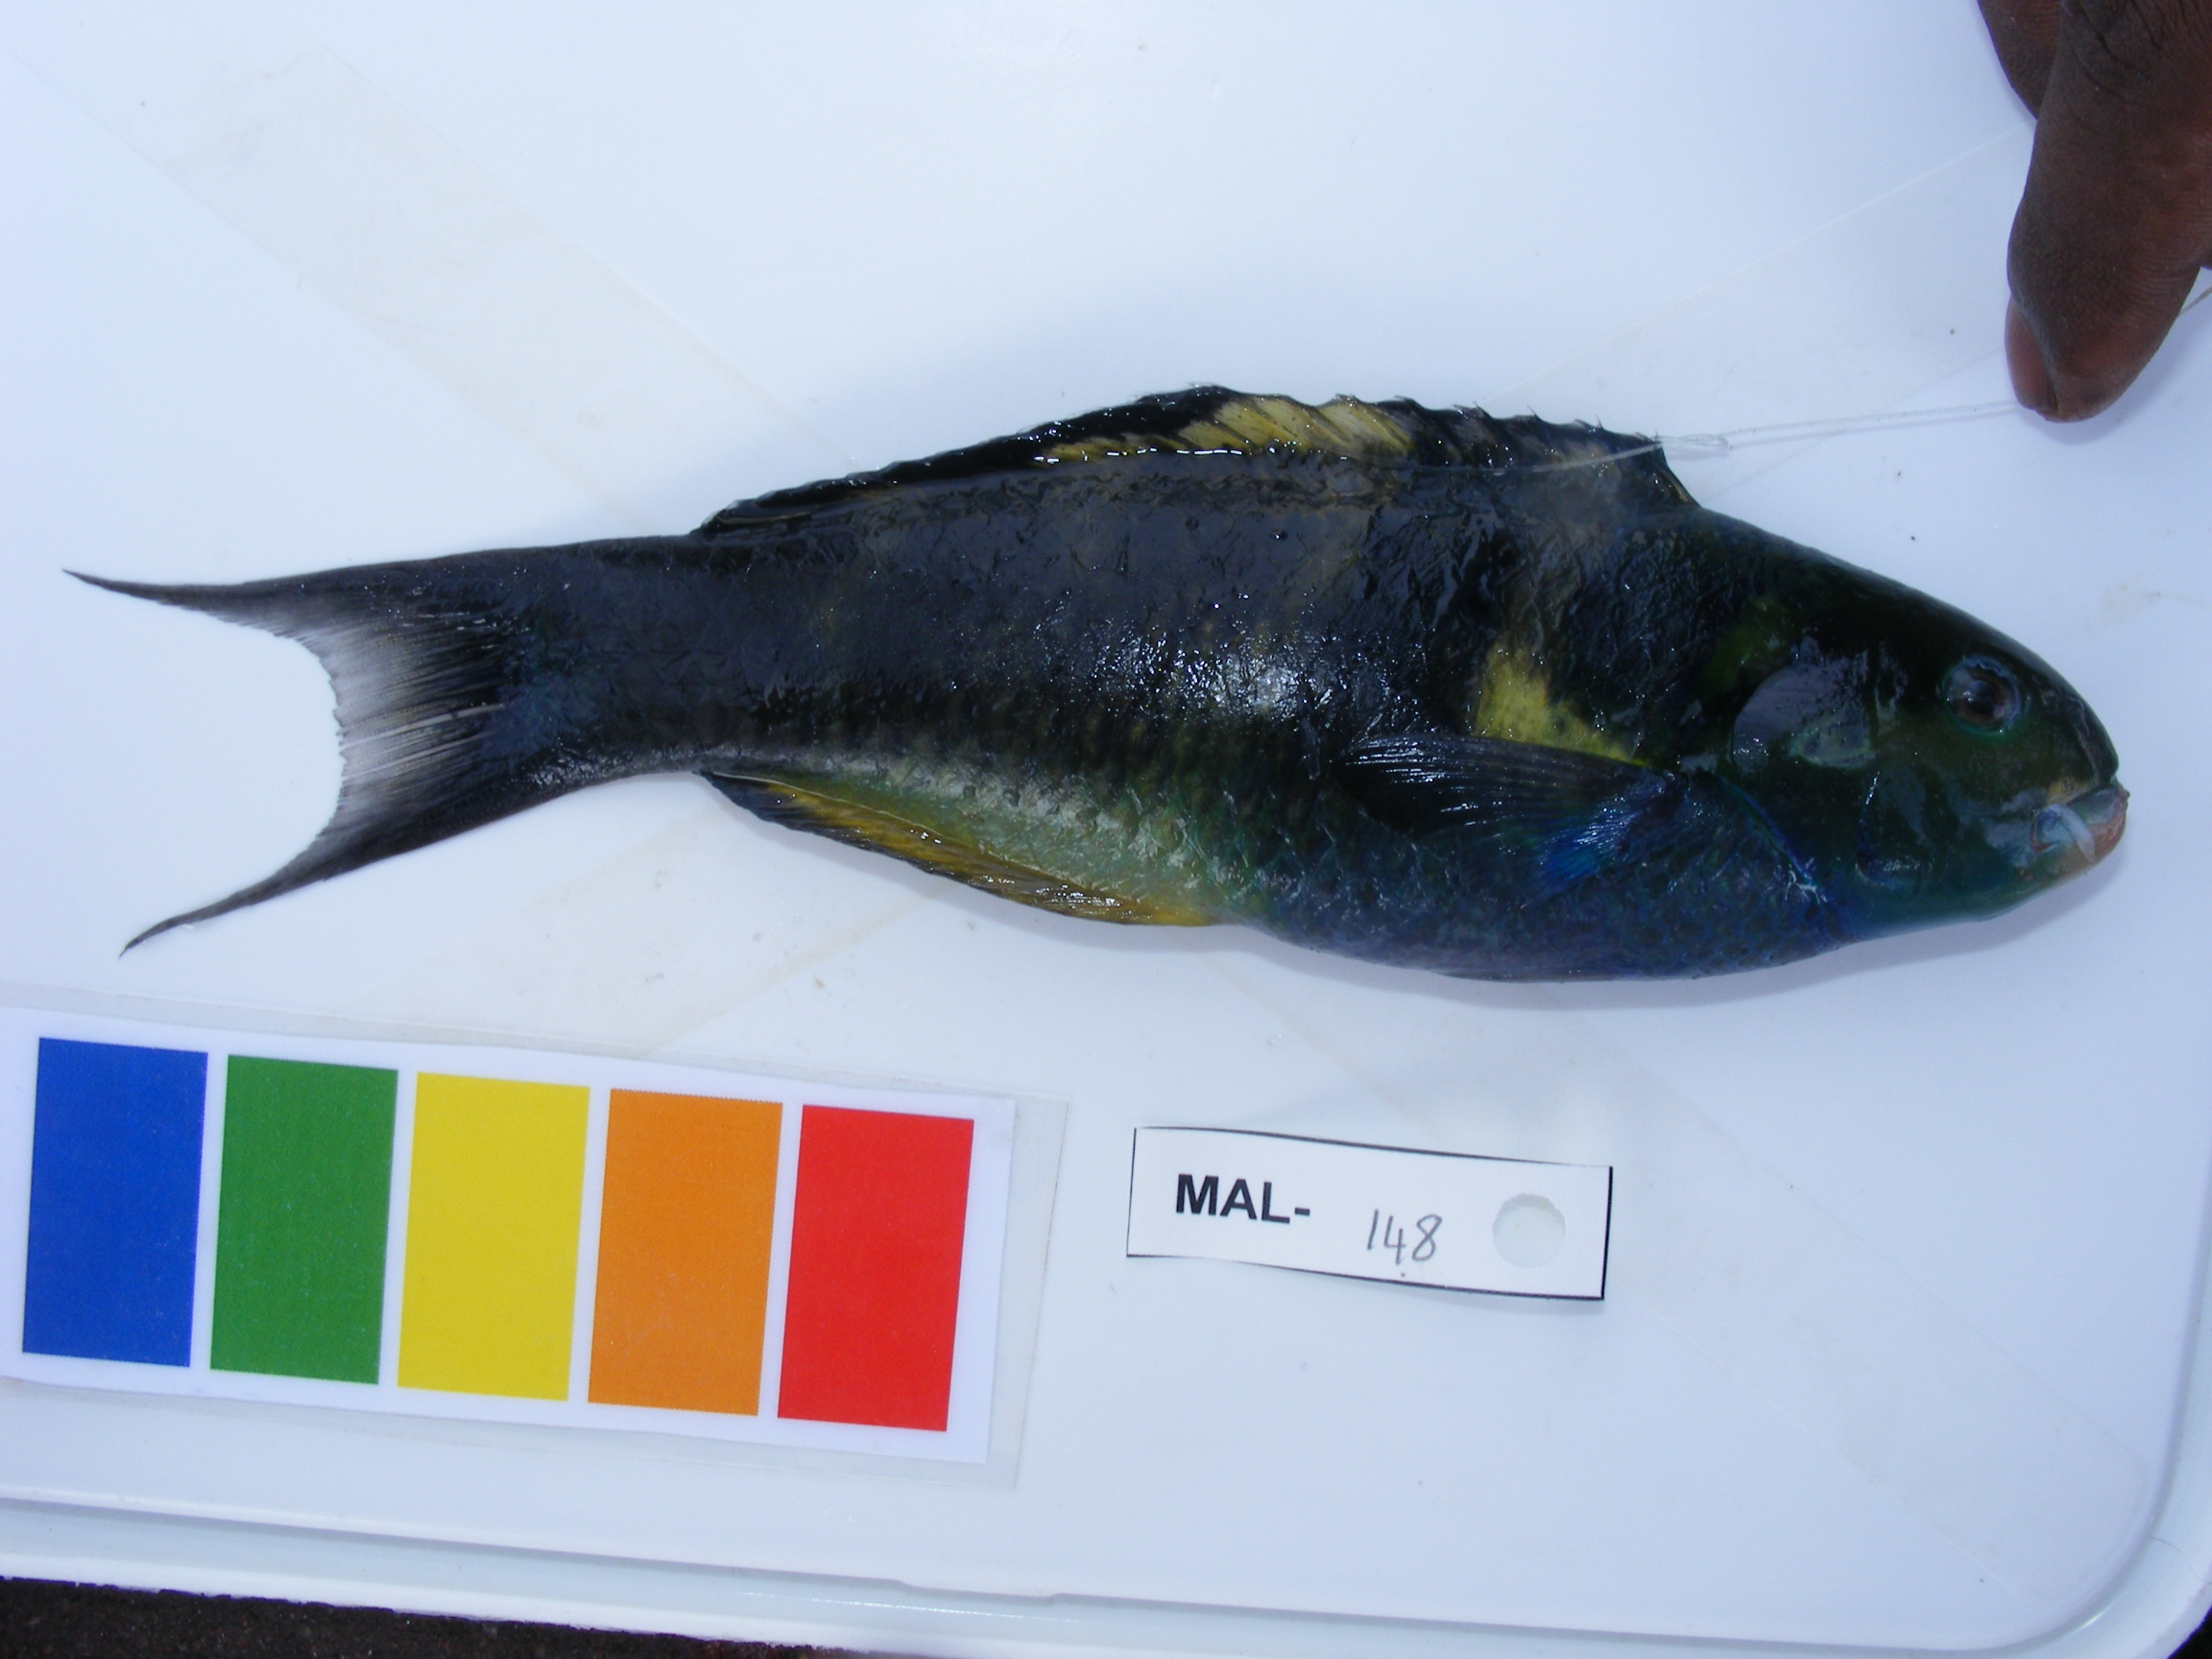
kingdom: Animalia
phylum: Chordata
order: Perciformes
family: Labridae
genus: Thalassoma
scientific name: Thalassoma
